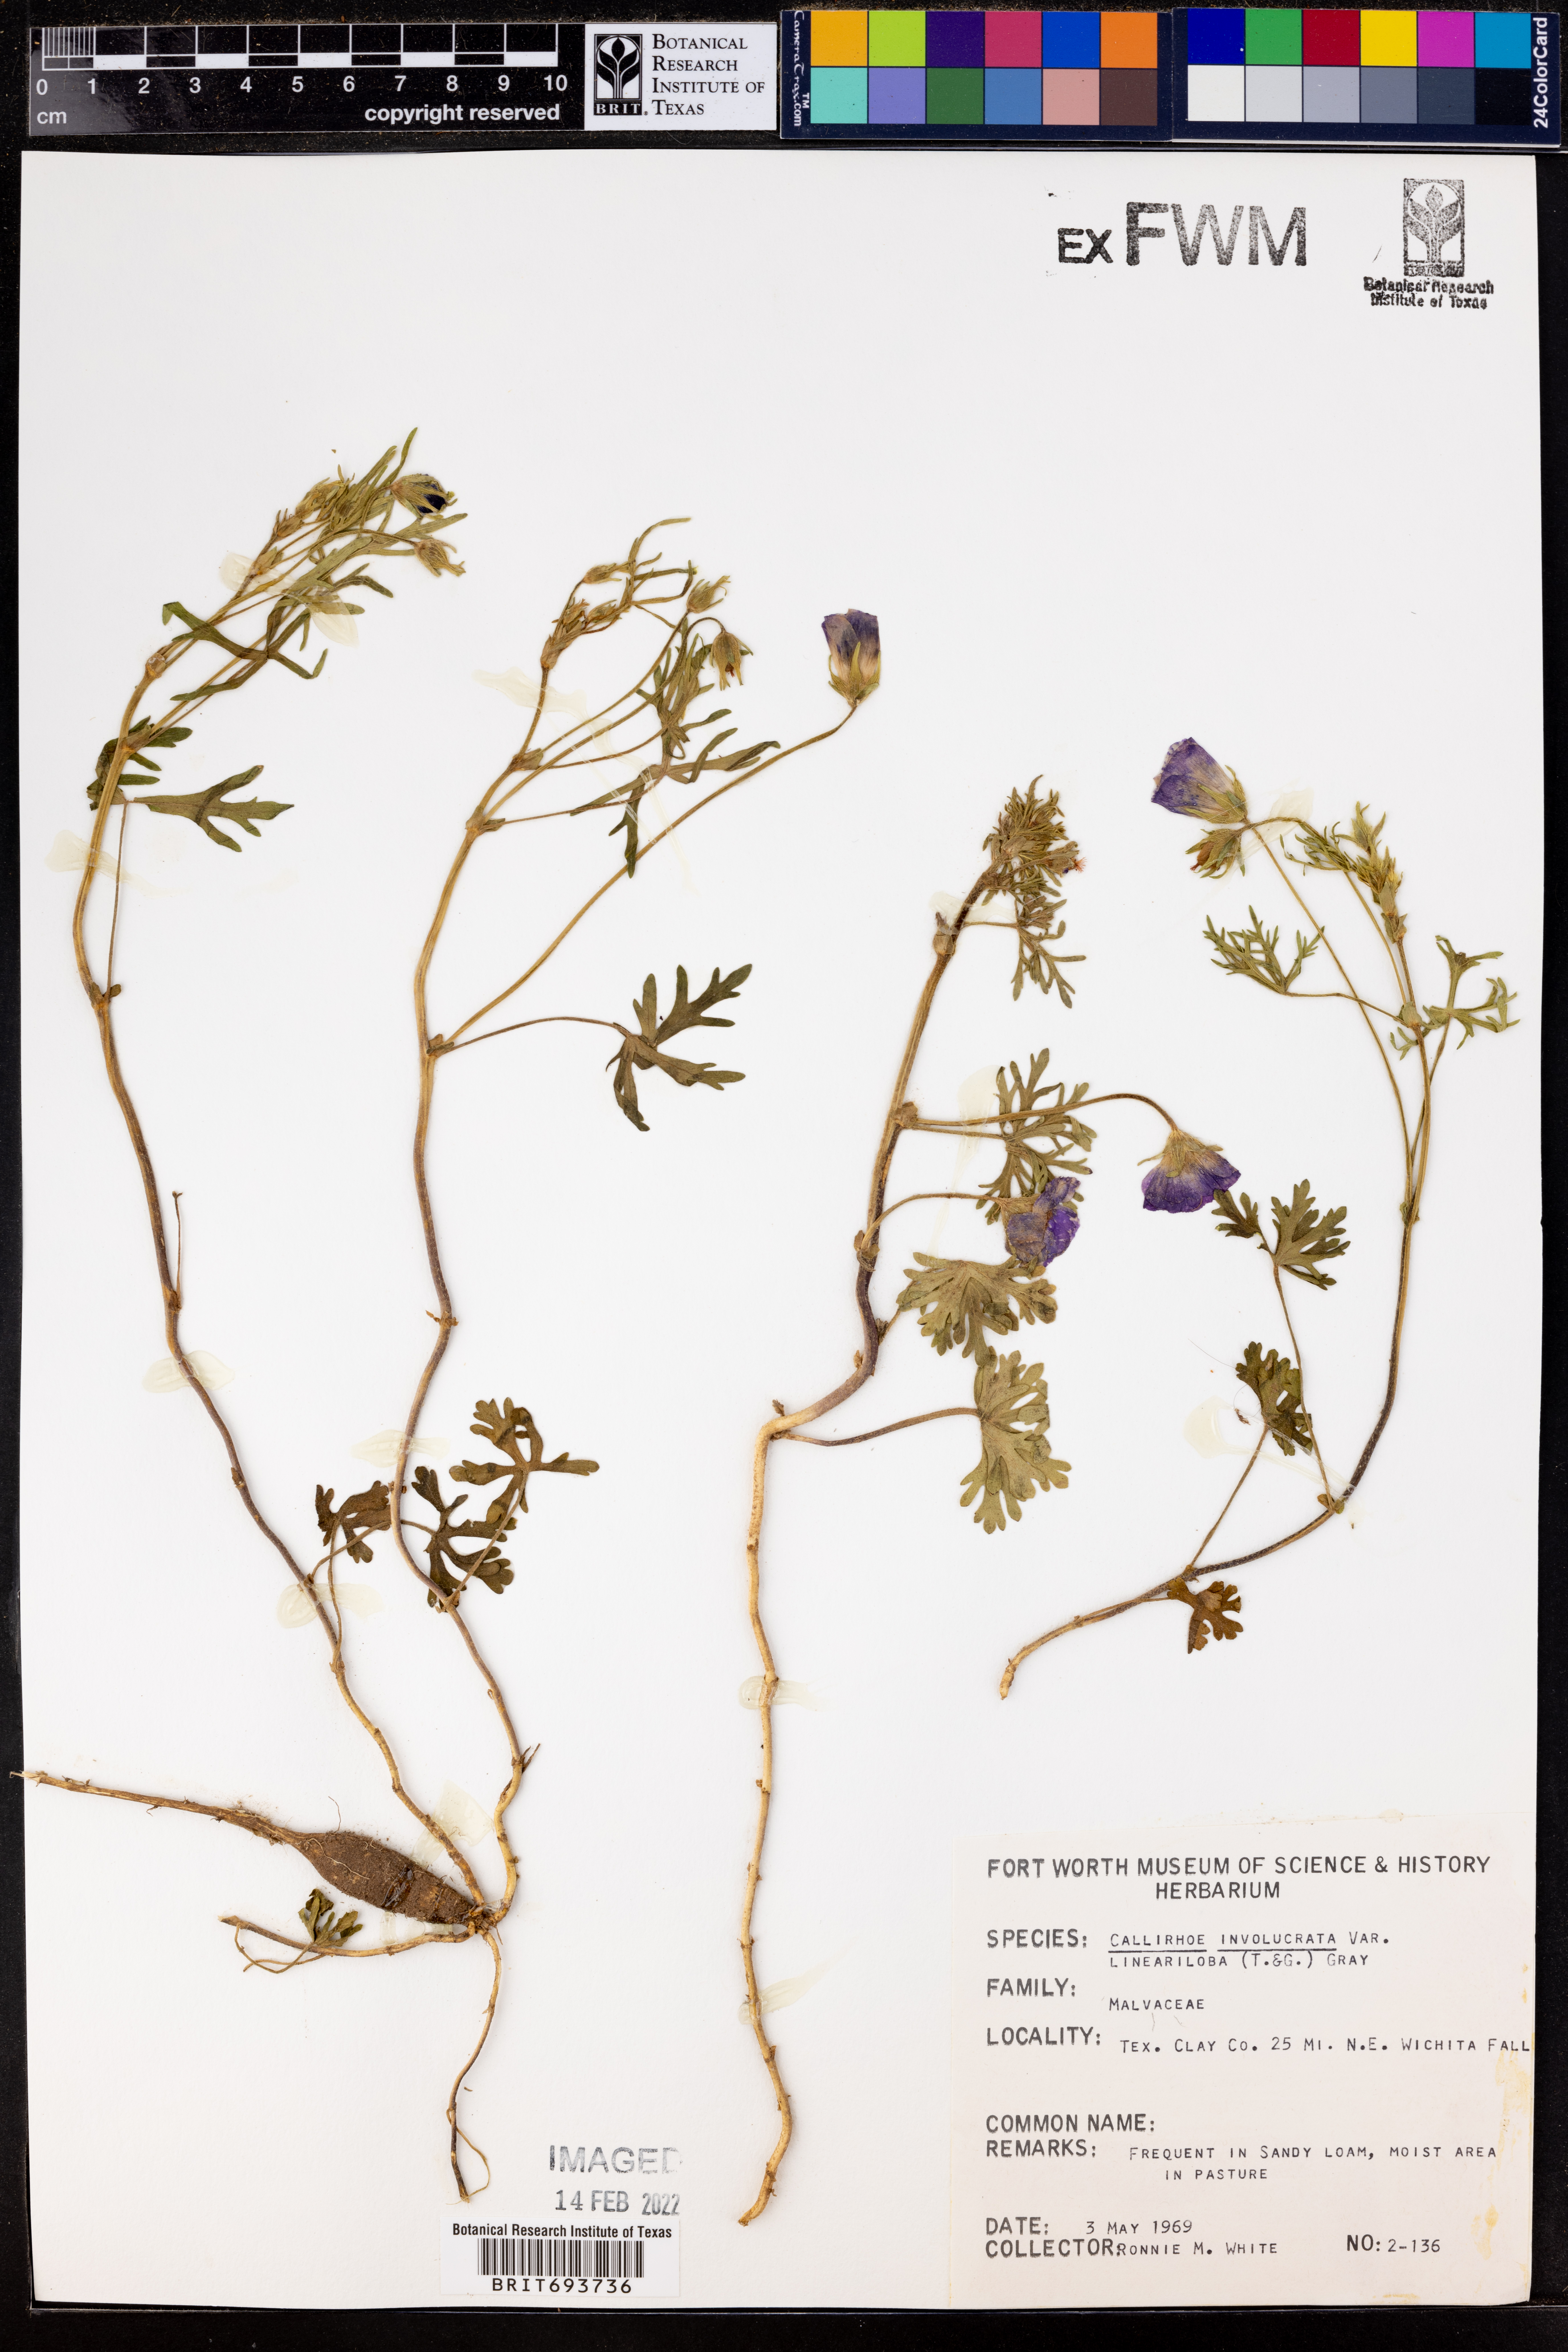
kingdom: Plantae
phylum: Tracheophyta
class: Magnoliopsida
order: Malvales
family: Malvaceae
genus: Callirhoe
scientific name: Callirhoe involucrata
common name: Purple poppy-mallow
